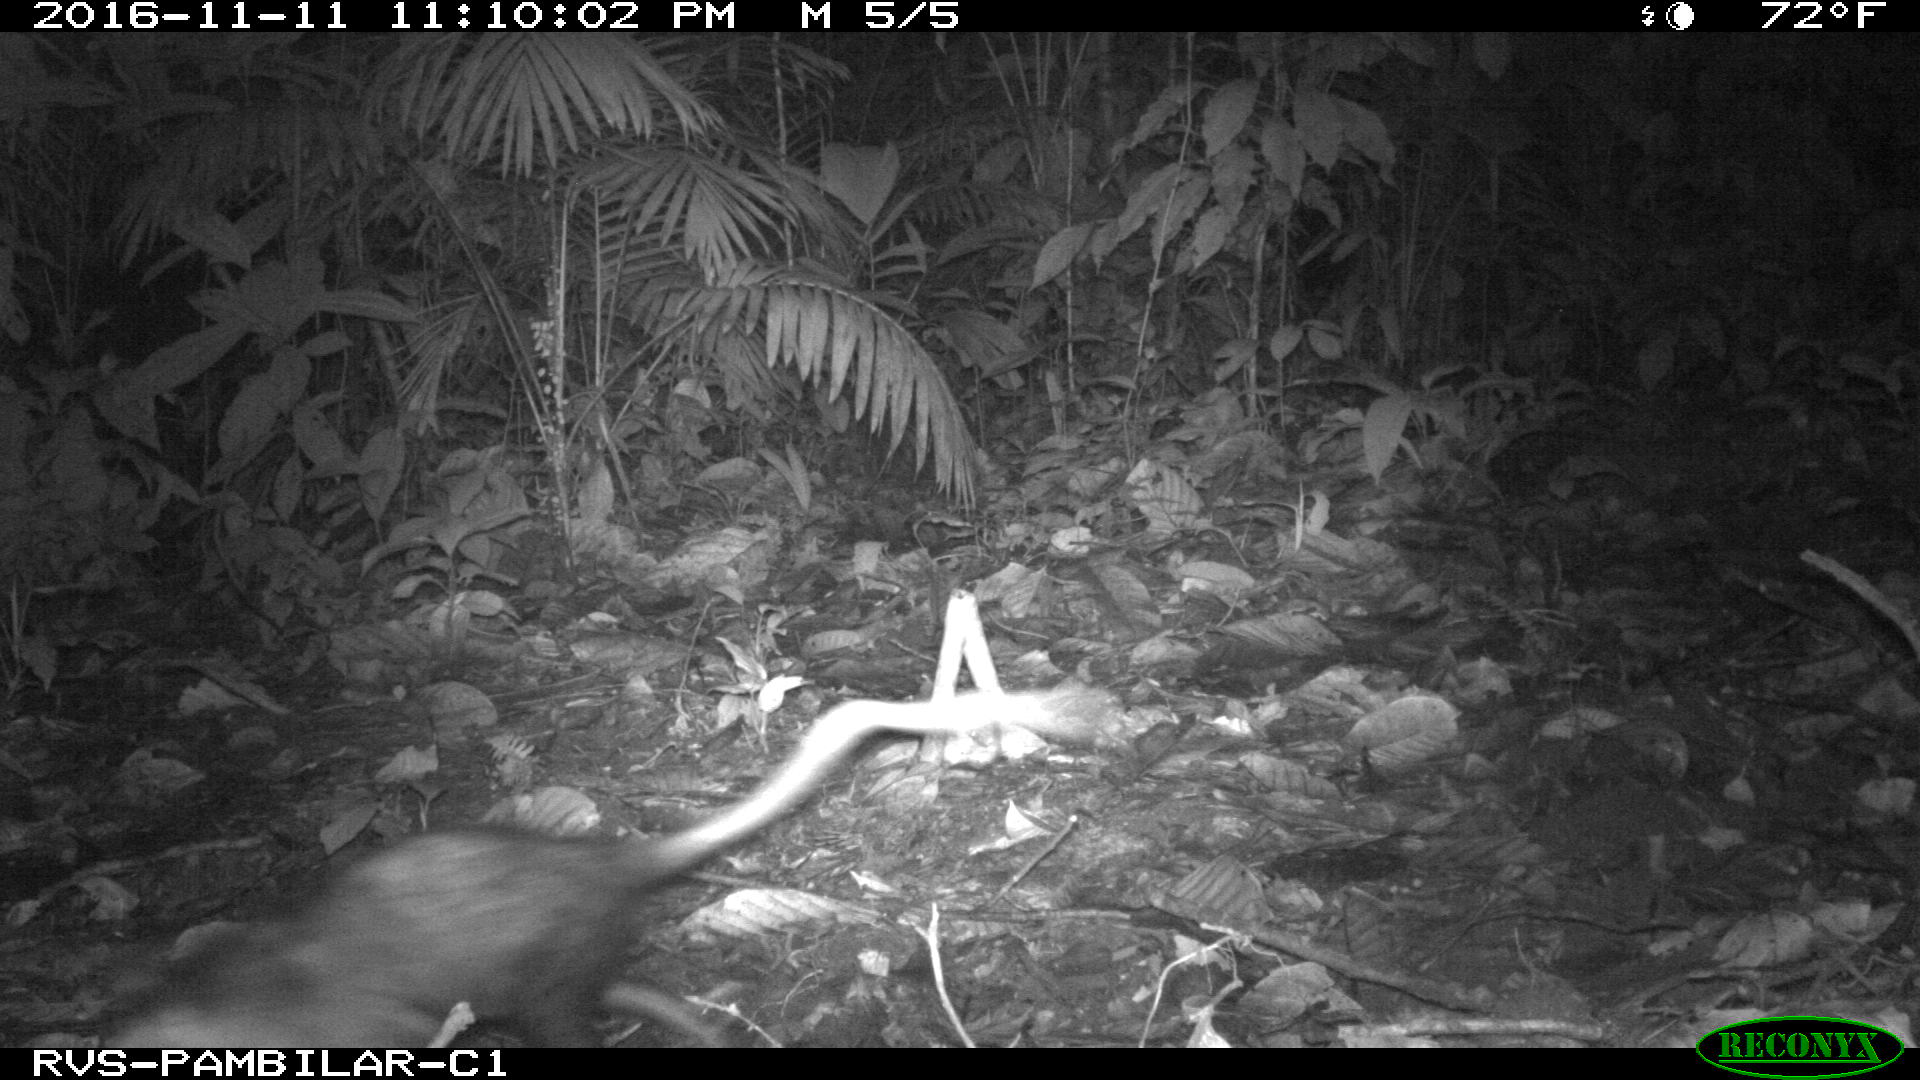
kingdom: Animalia
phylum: Chordata
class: Mammalia
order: Didelphimorphia
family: Didelphidae
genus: Didelphis
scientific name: Didelphis marsupialis
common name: Common opossum
